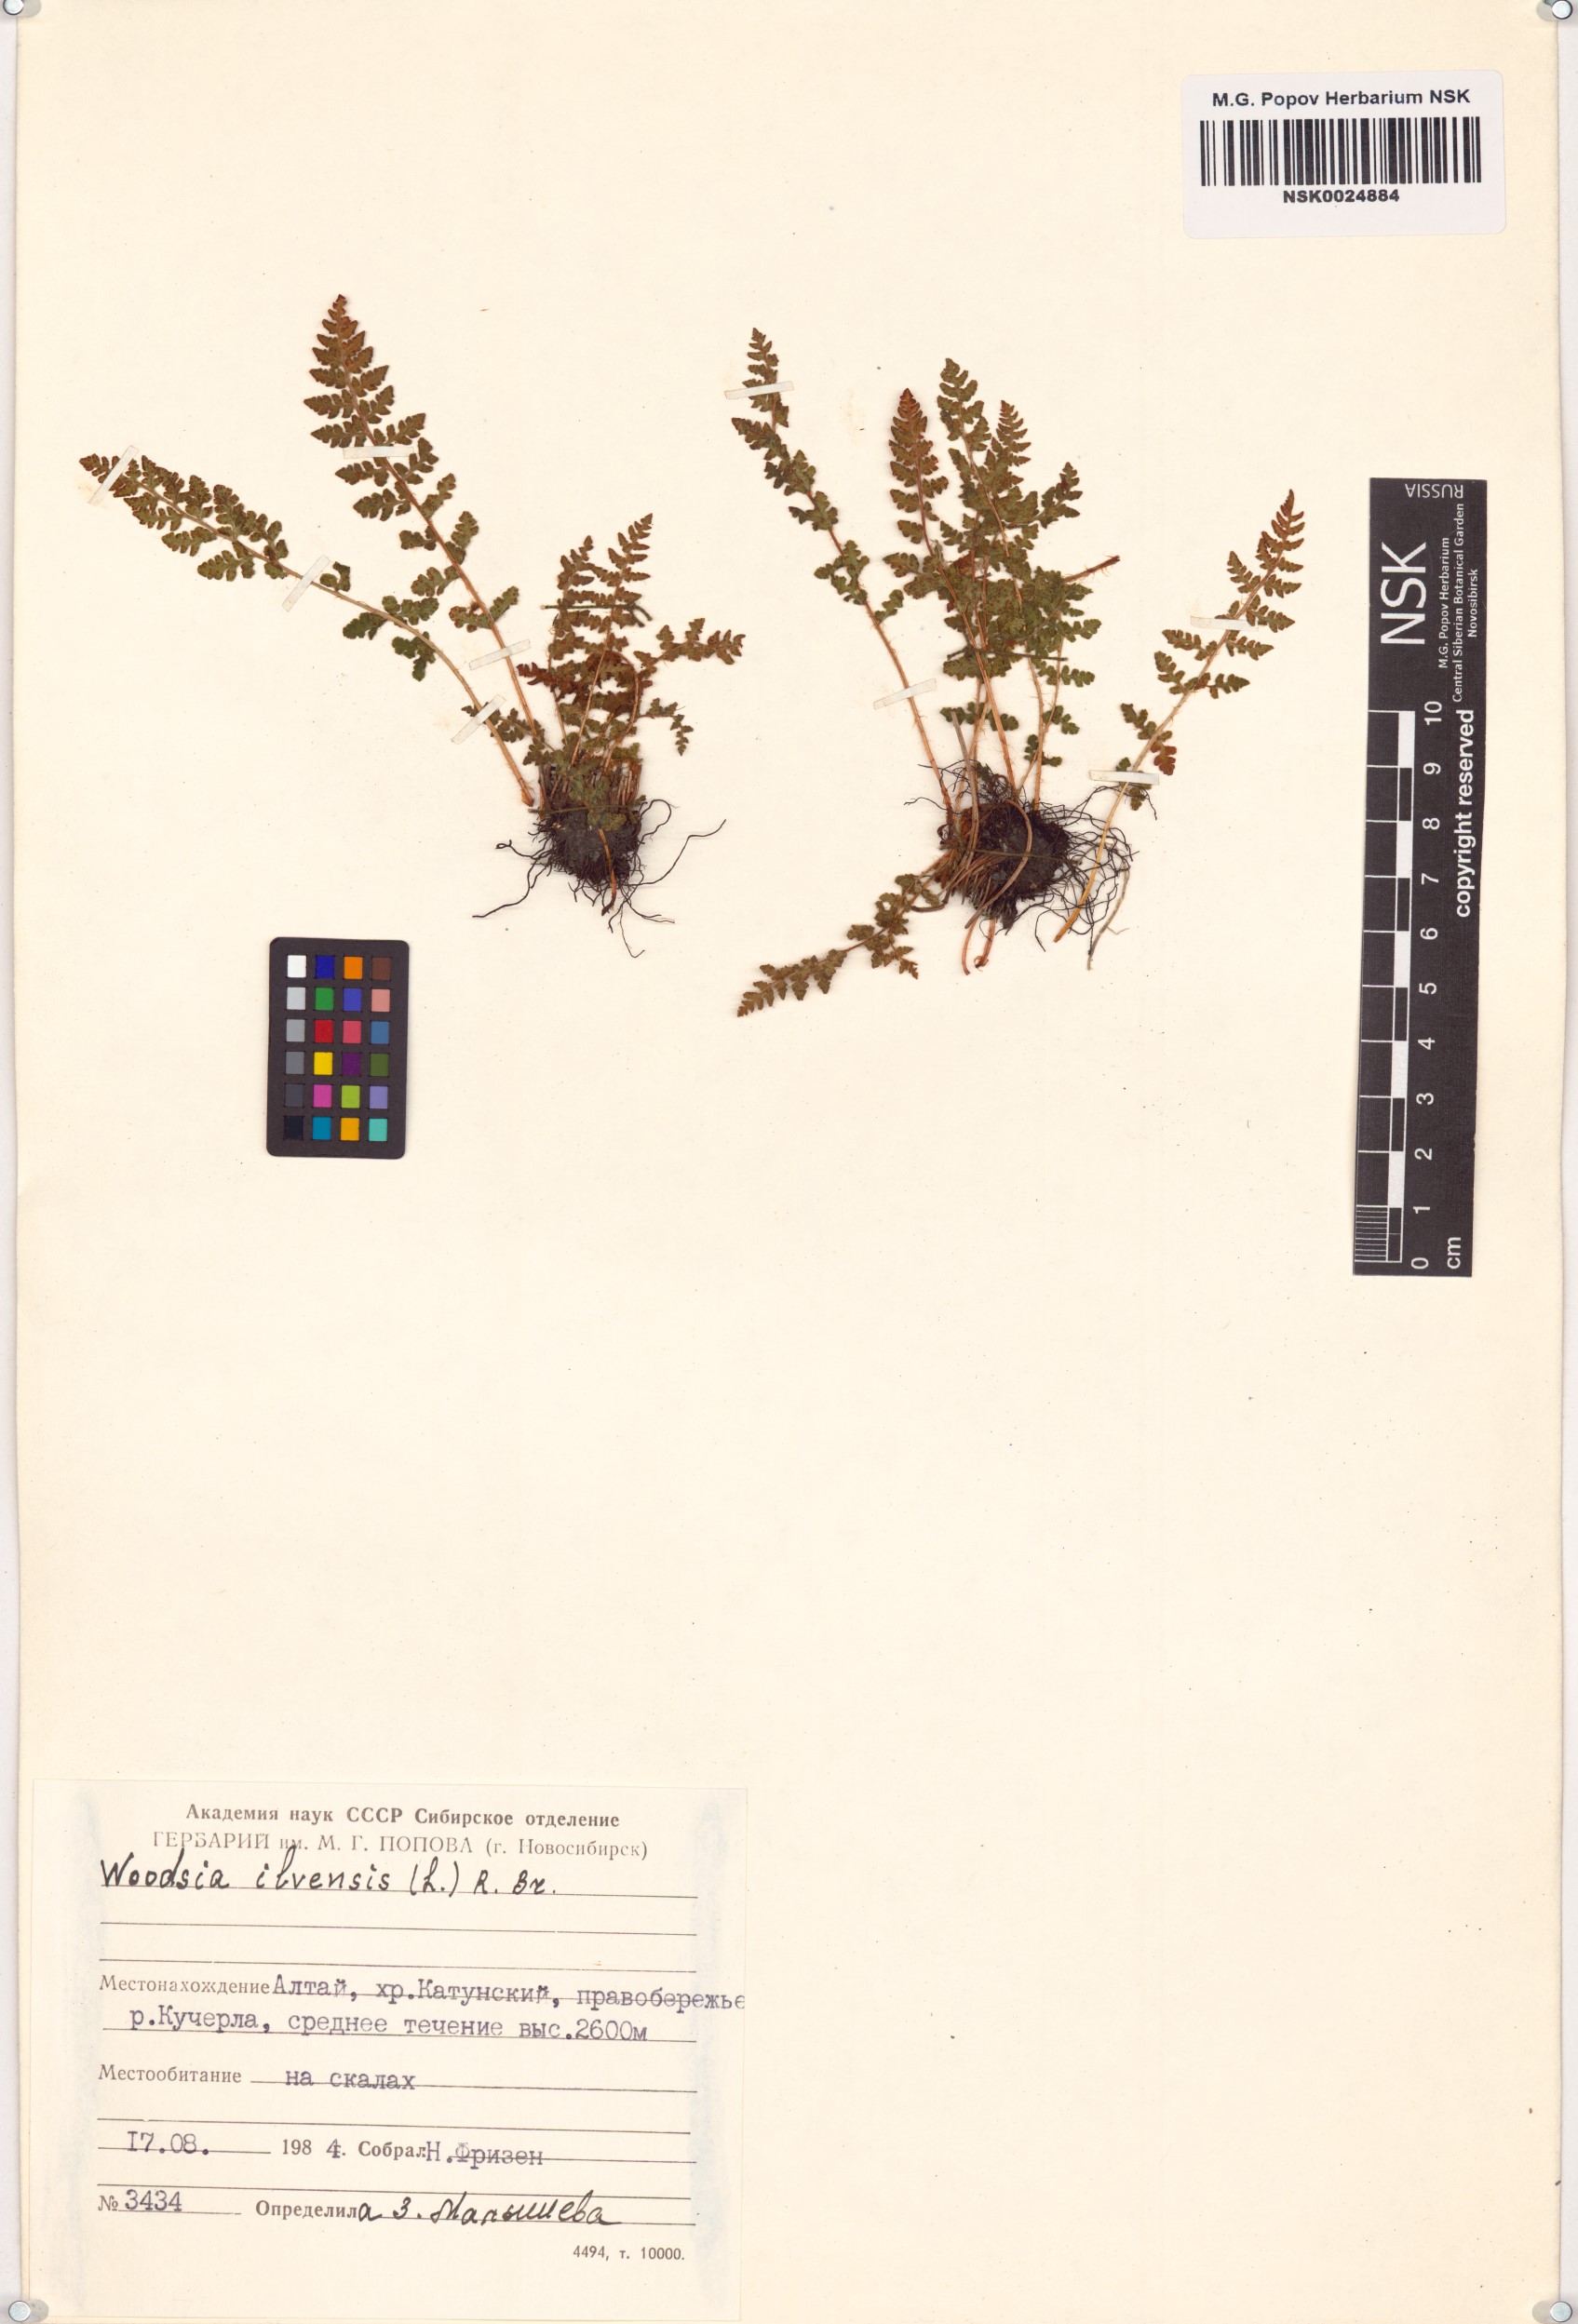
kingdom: Plantae
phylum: Tracheophyta
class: Polypodiopsida
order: Polypodiales
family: Woodsiaceae
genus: Woodsia
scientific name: Woodsia ilvensis
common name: Fragrant woodsia
